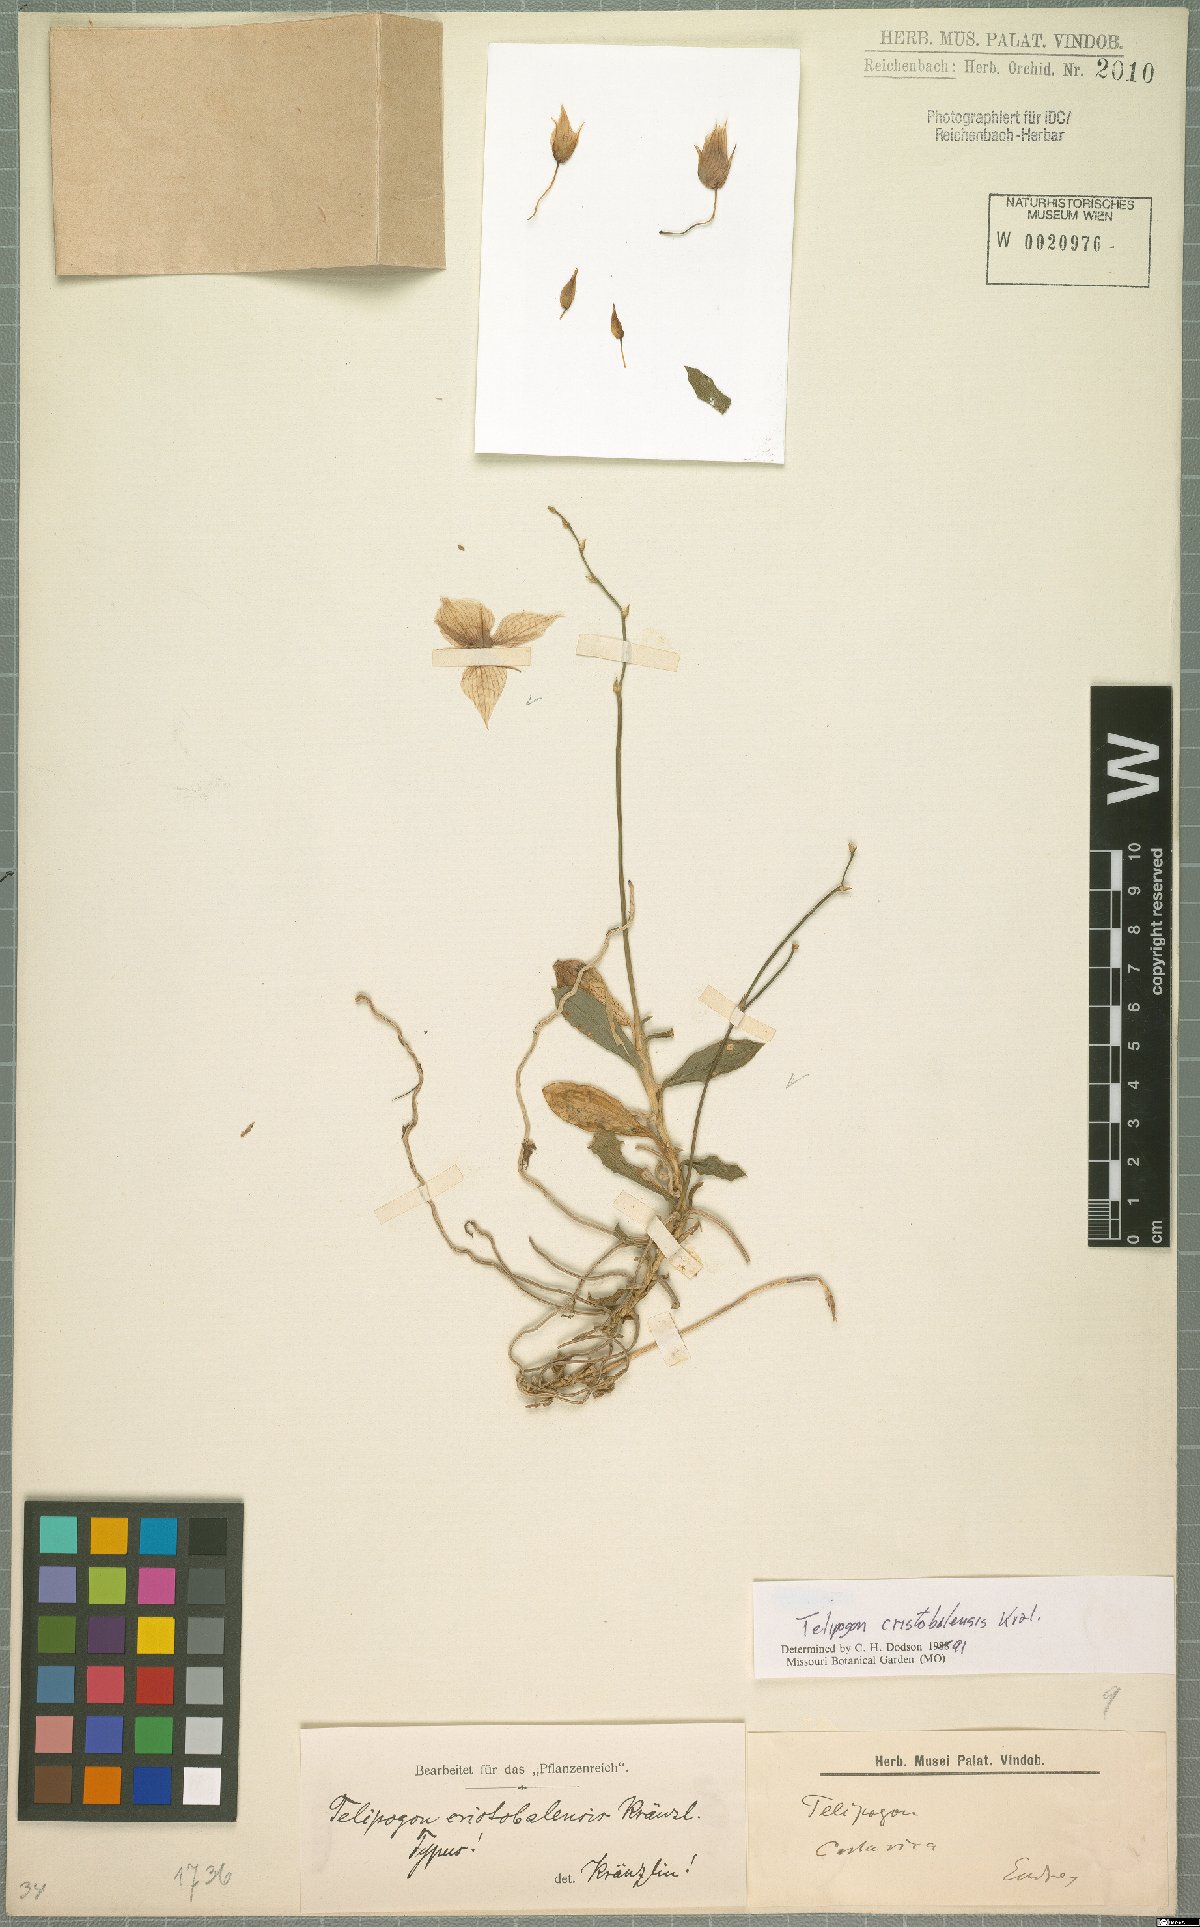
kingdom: Plantae
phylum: Tracheophyta
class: Liliopsida
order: Asparagales
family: Orchidaceae
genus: Telipogon
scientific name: Telipogon christobalensis
